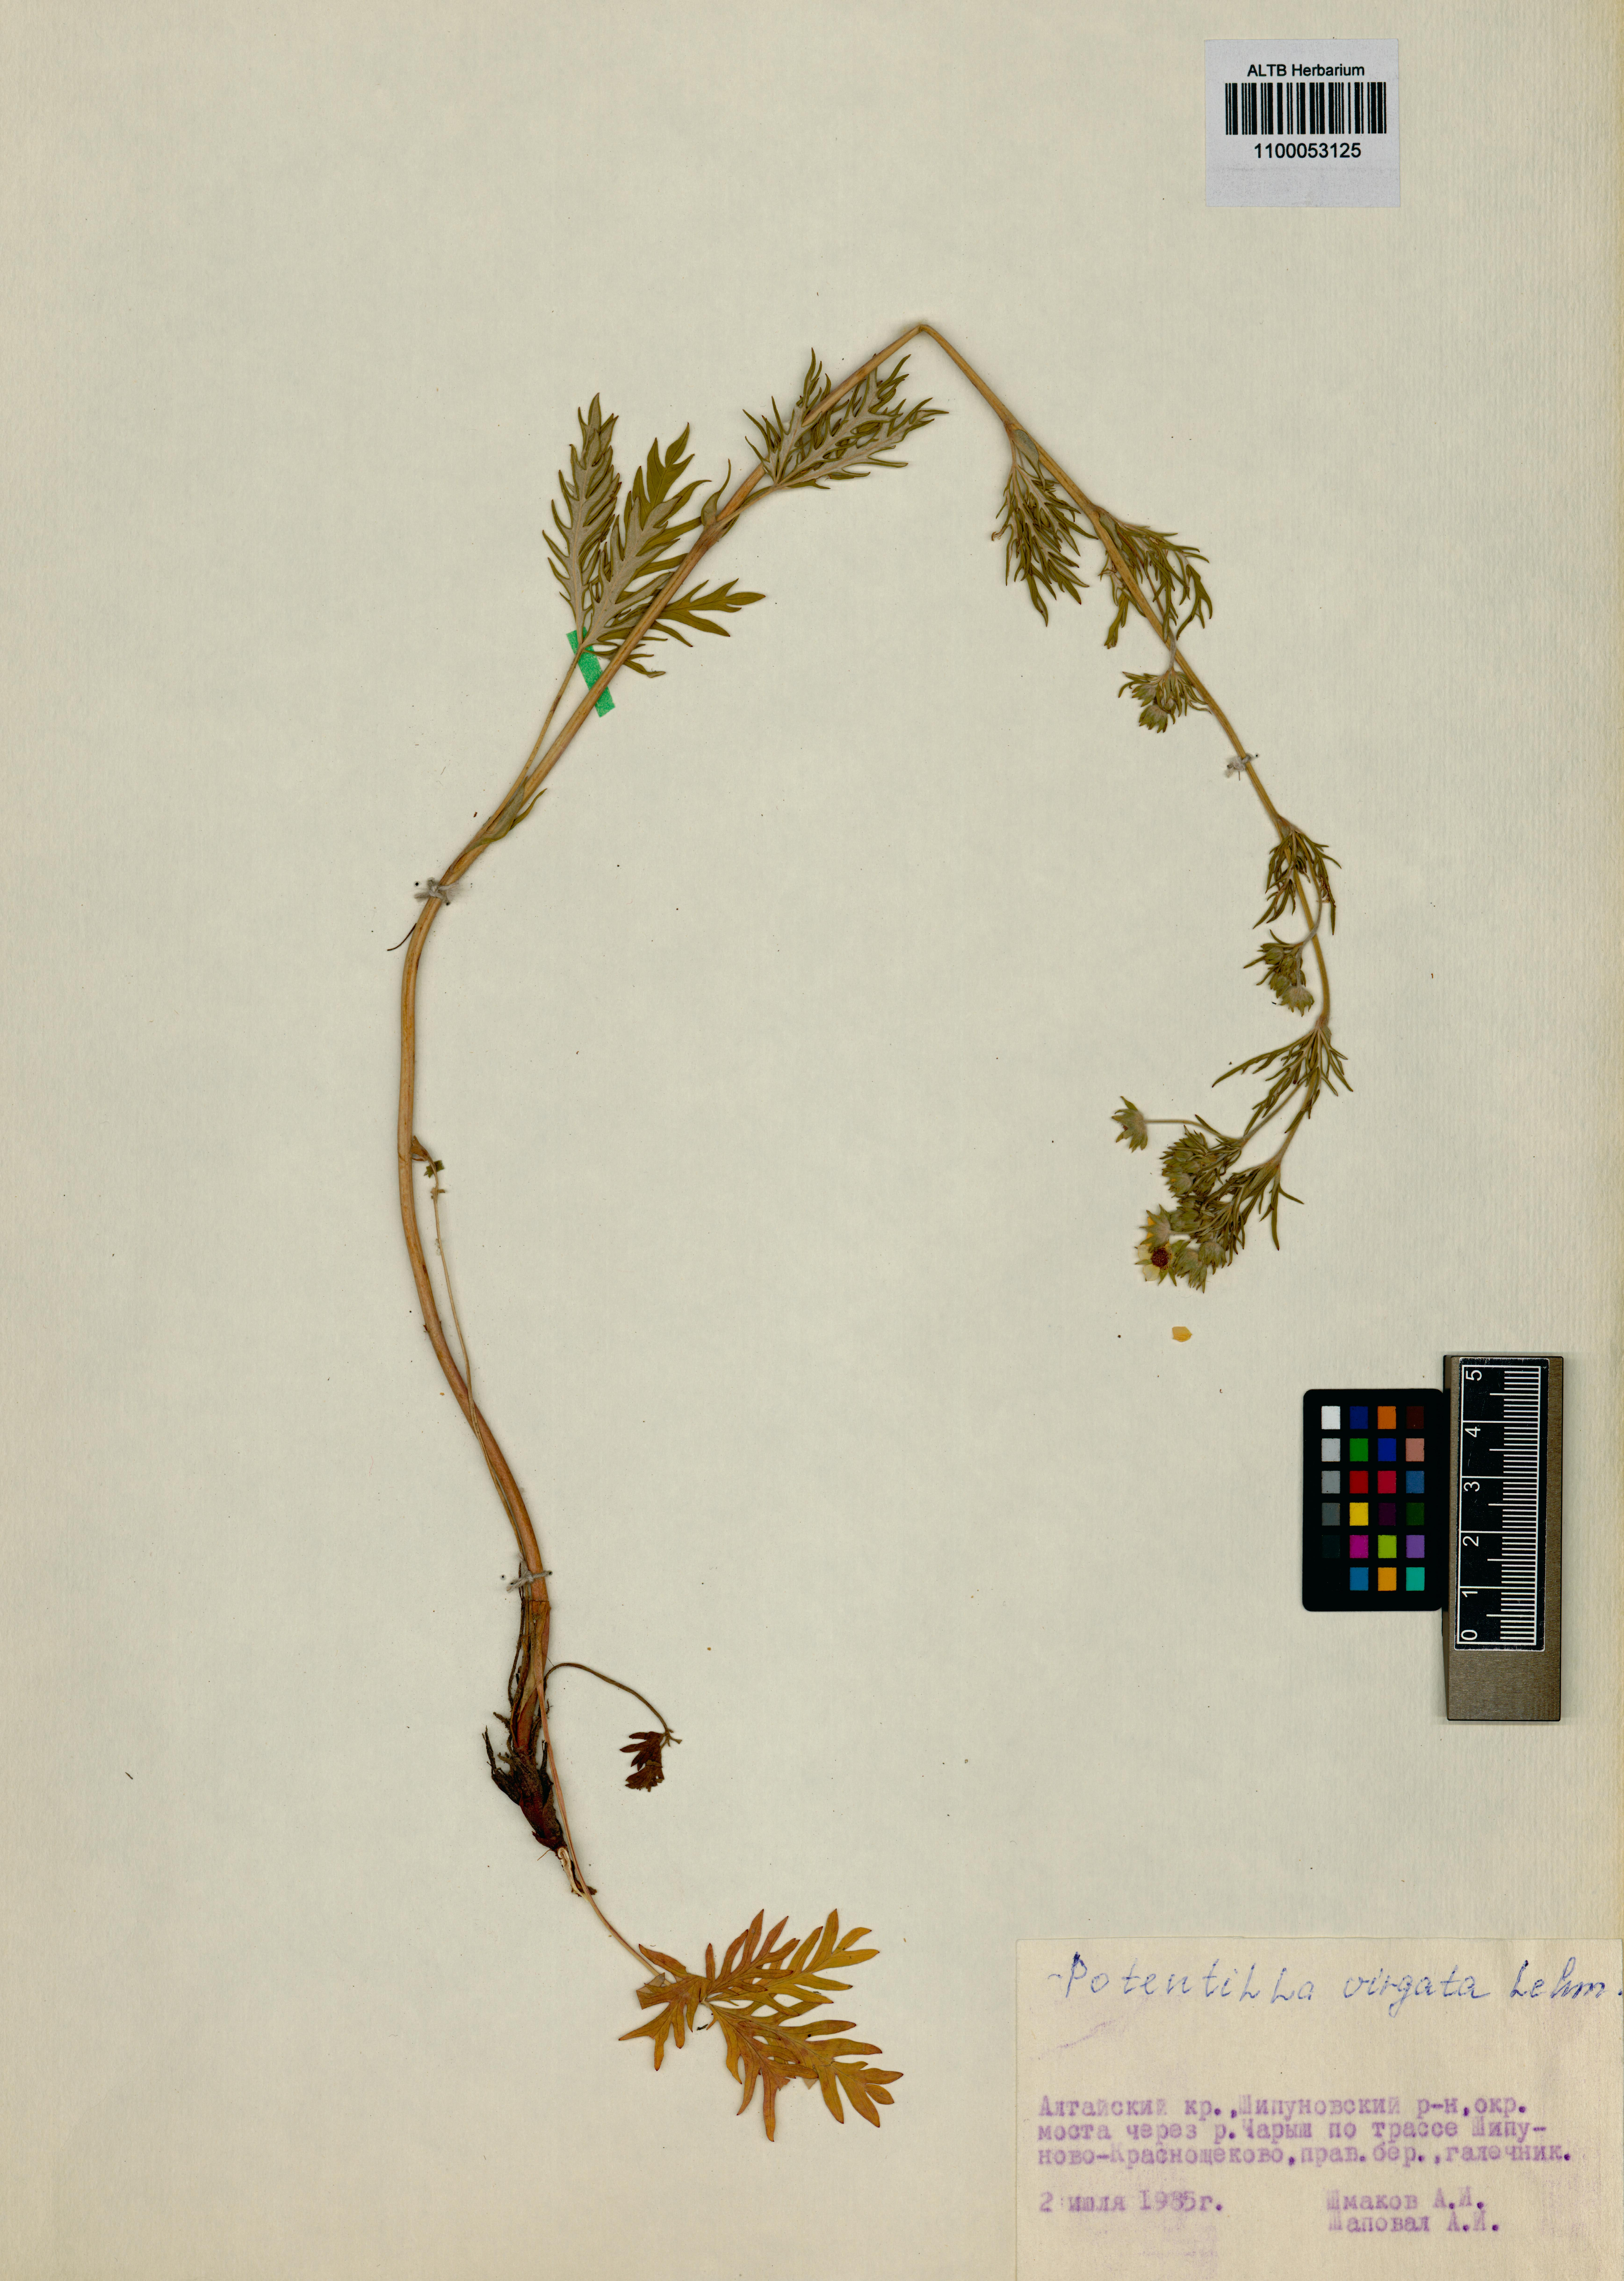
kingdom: Plantae
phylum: Tracheophyta
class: Magnoliopsida
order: Rosales
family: Rosaceae
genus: Potentilla
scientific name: Potentilla virgata
